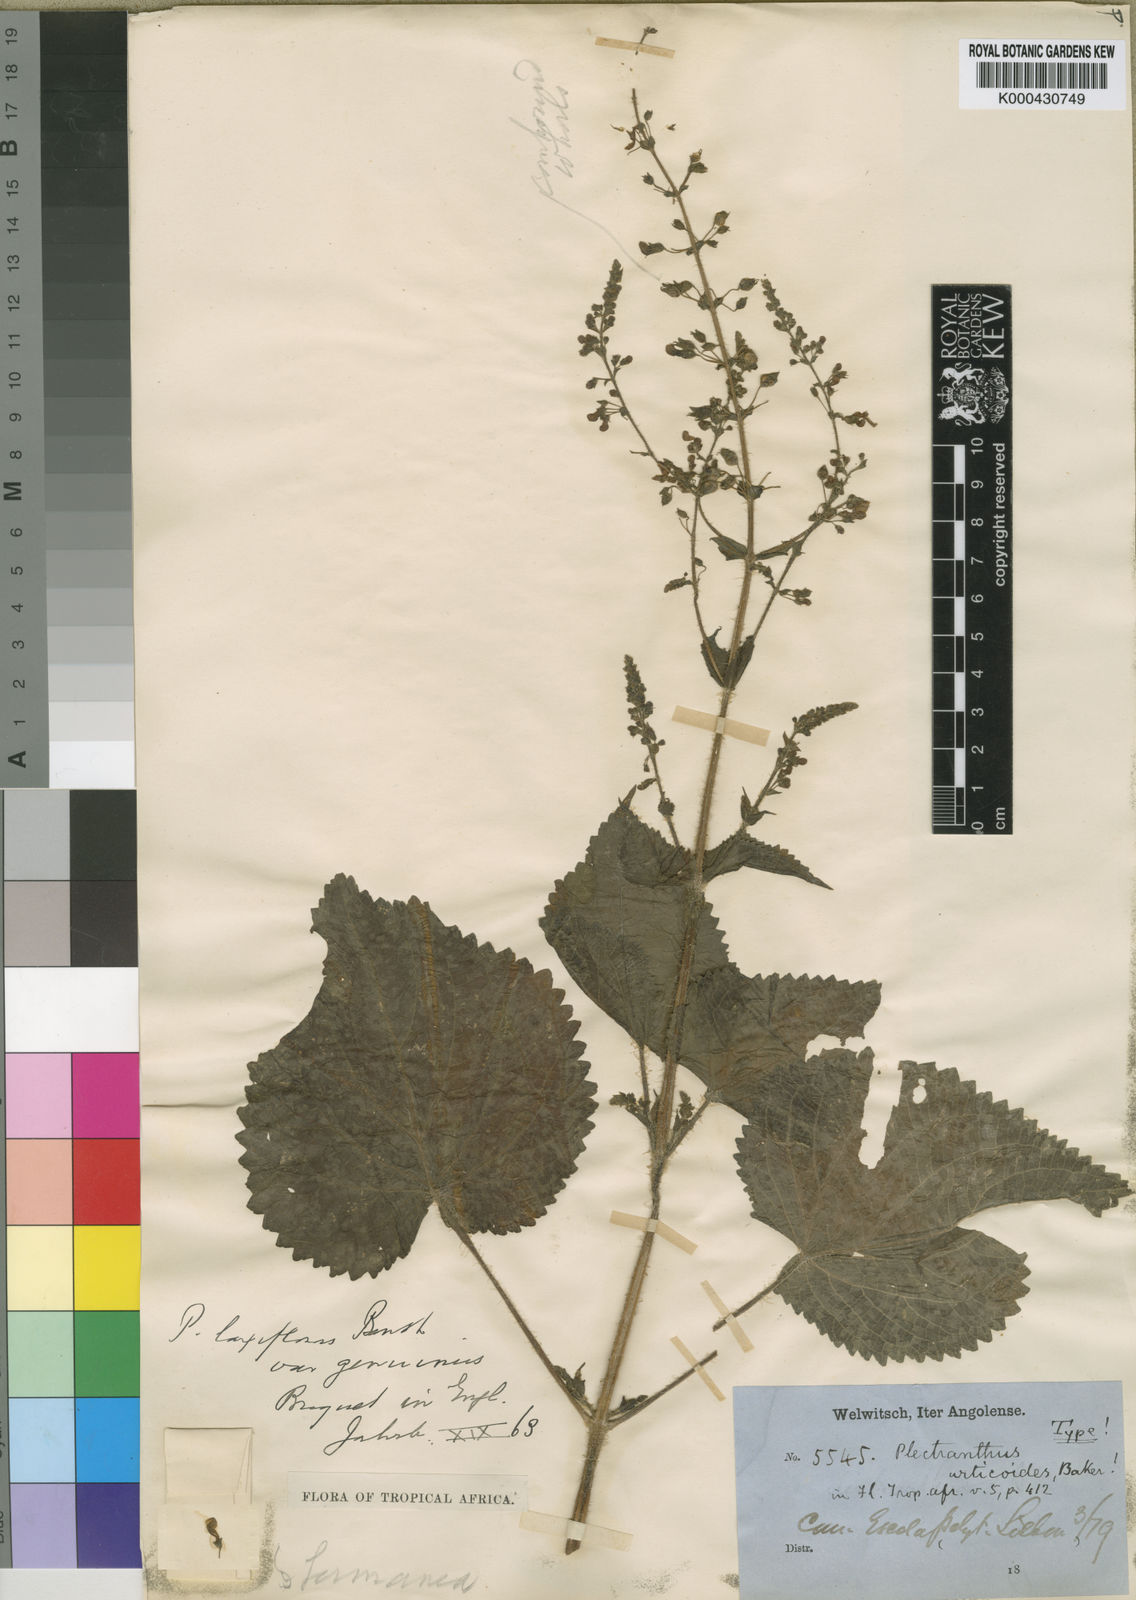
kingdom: Plantae
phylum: Tracheophyta
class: Magnoliopsida
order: Lamiales
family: Lamiaceae
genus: Equilabium
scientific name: Equilabium glandulosum
